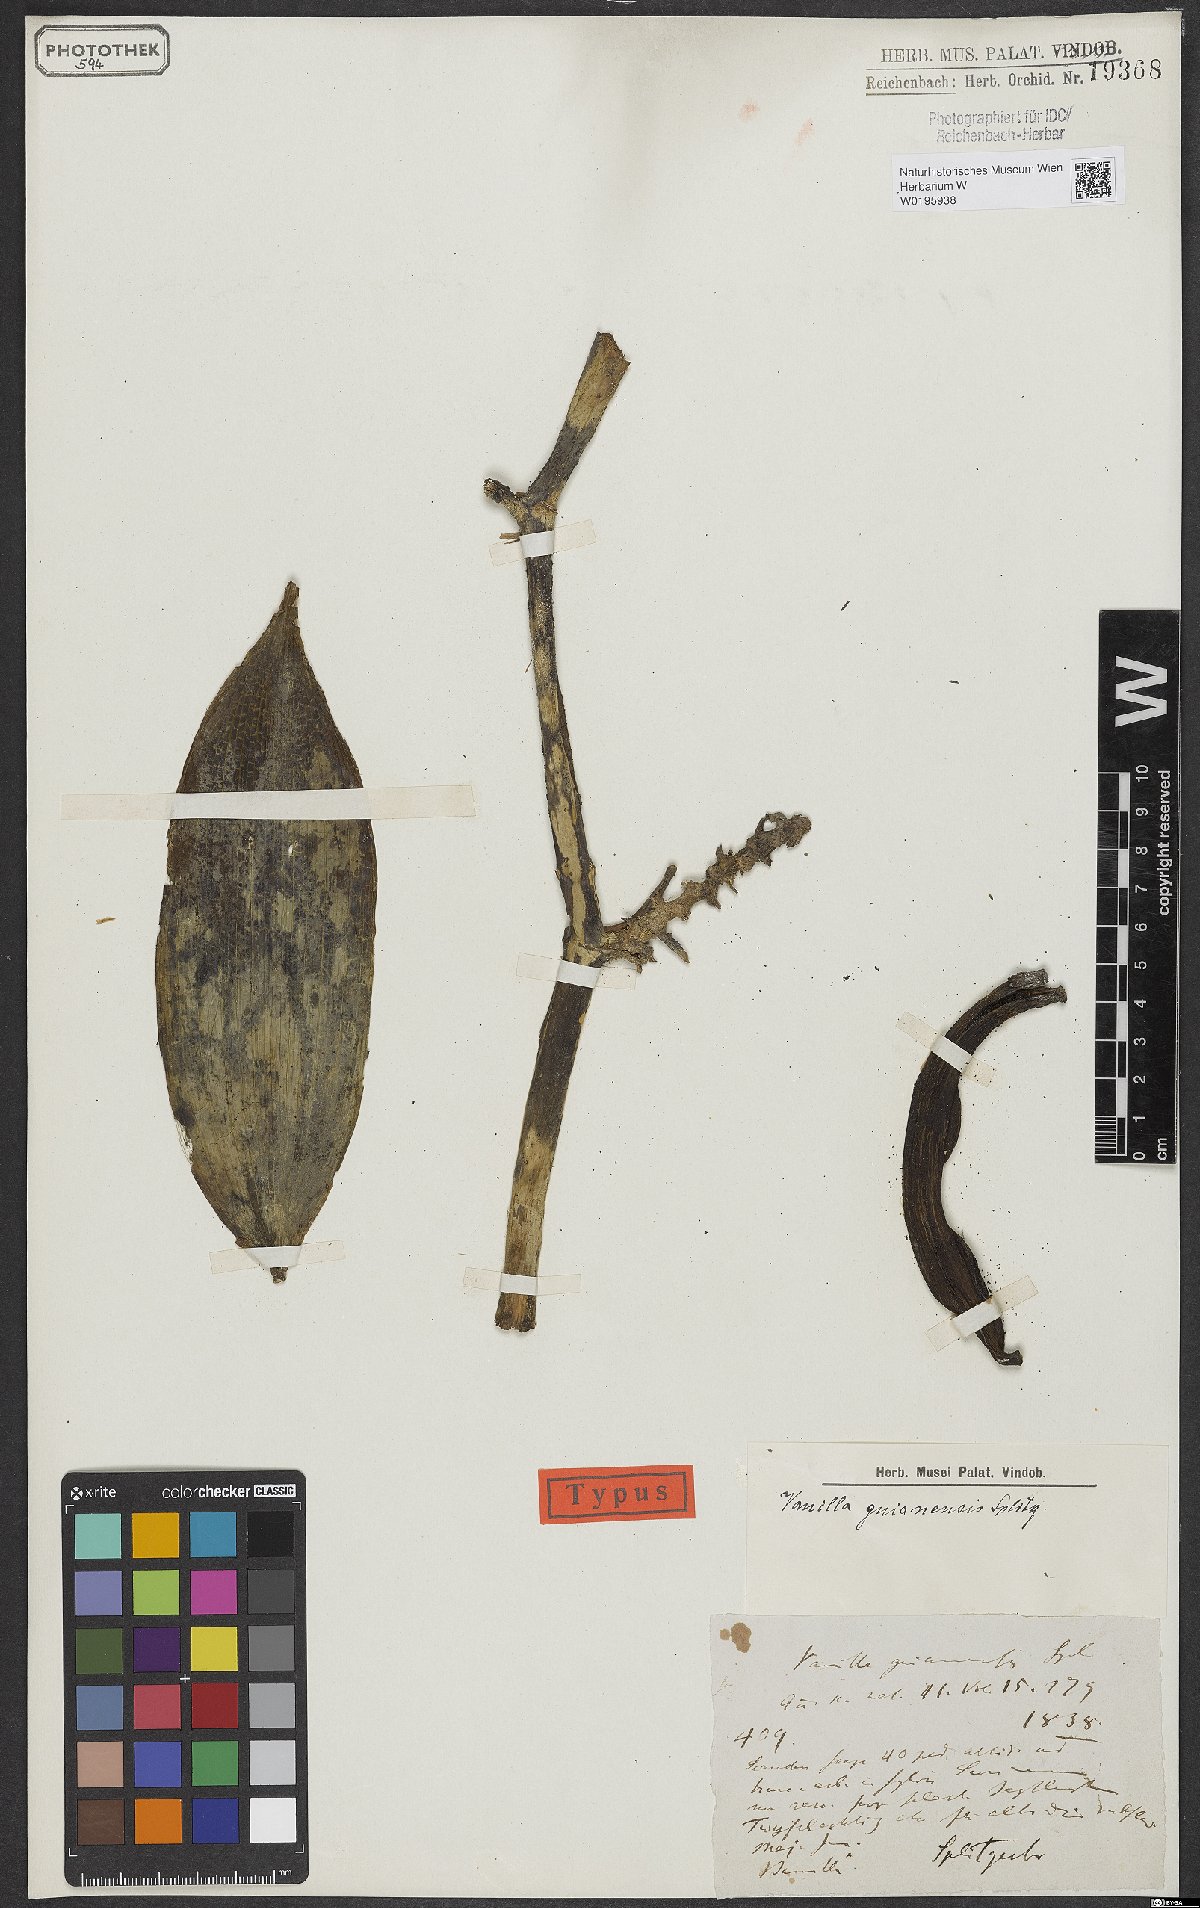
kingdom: Plantae
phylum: Tracheophyta
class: Liliopsida
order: Asparagales
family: Orchidaceae
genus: Vanilla
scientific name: Vanilla guianensis
